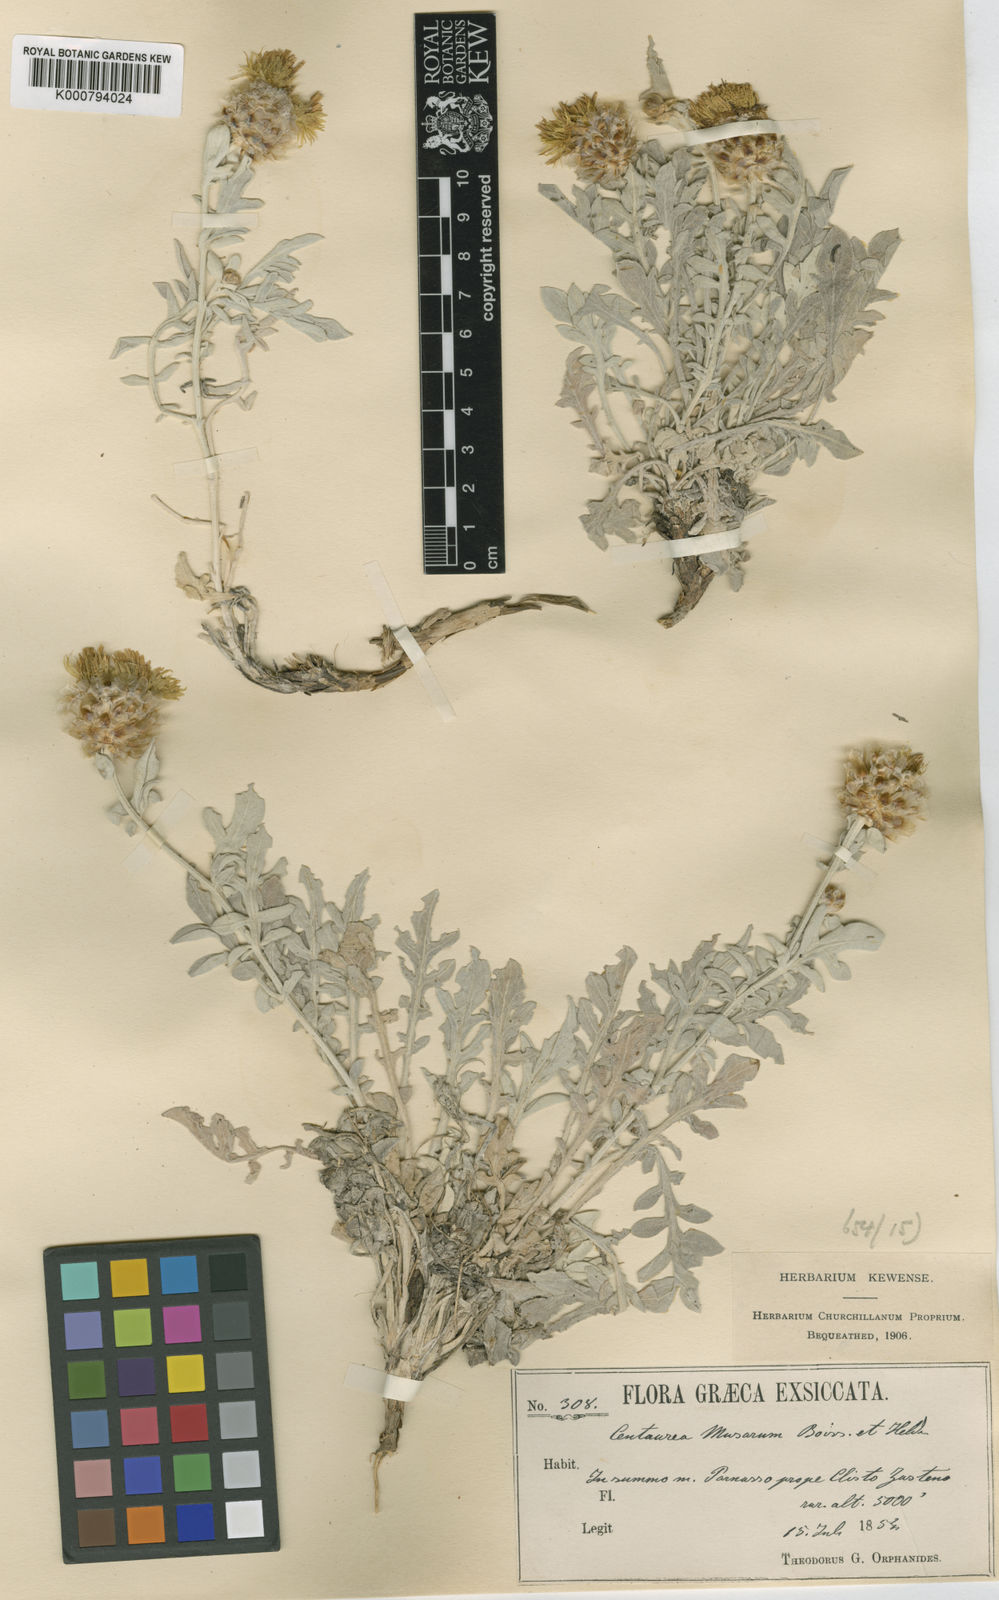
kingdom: Plantae
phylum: Tracheophyta
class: Magnoliopsida
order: Asterales
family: Asteraceae
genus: Centaurea
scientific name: Centaurea musarum
